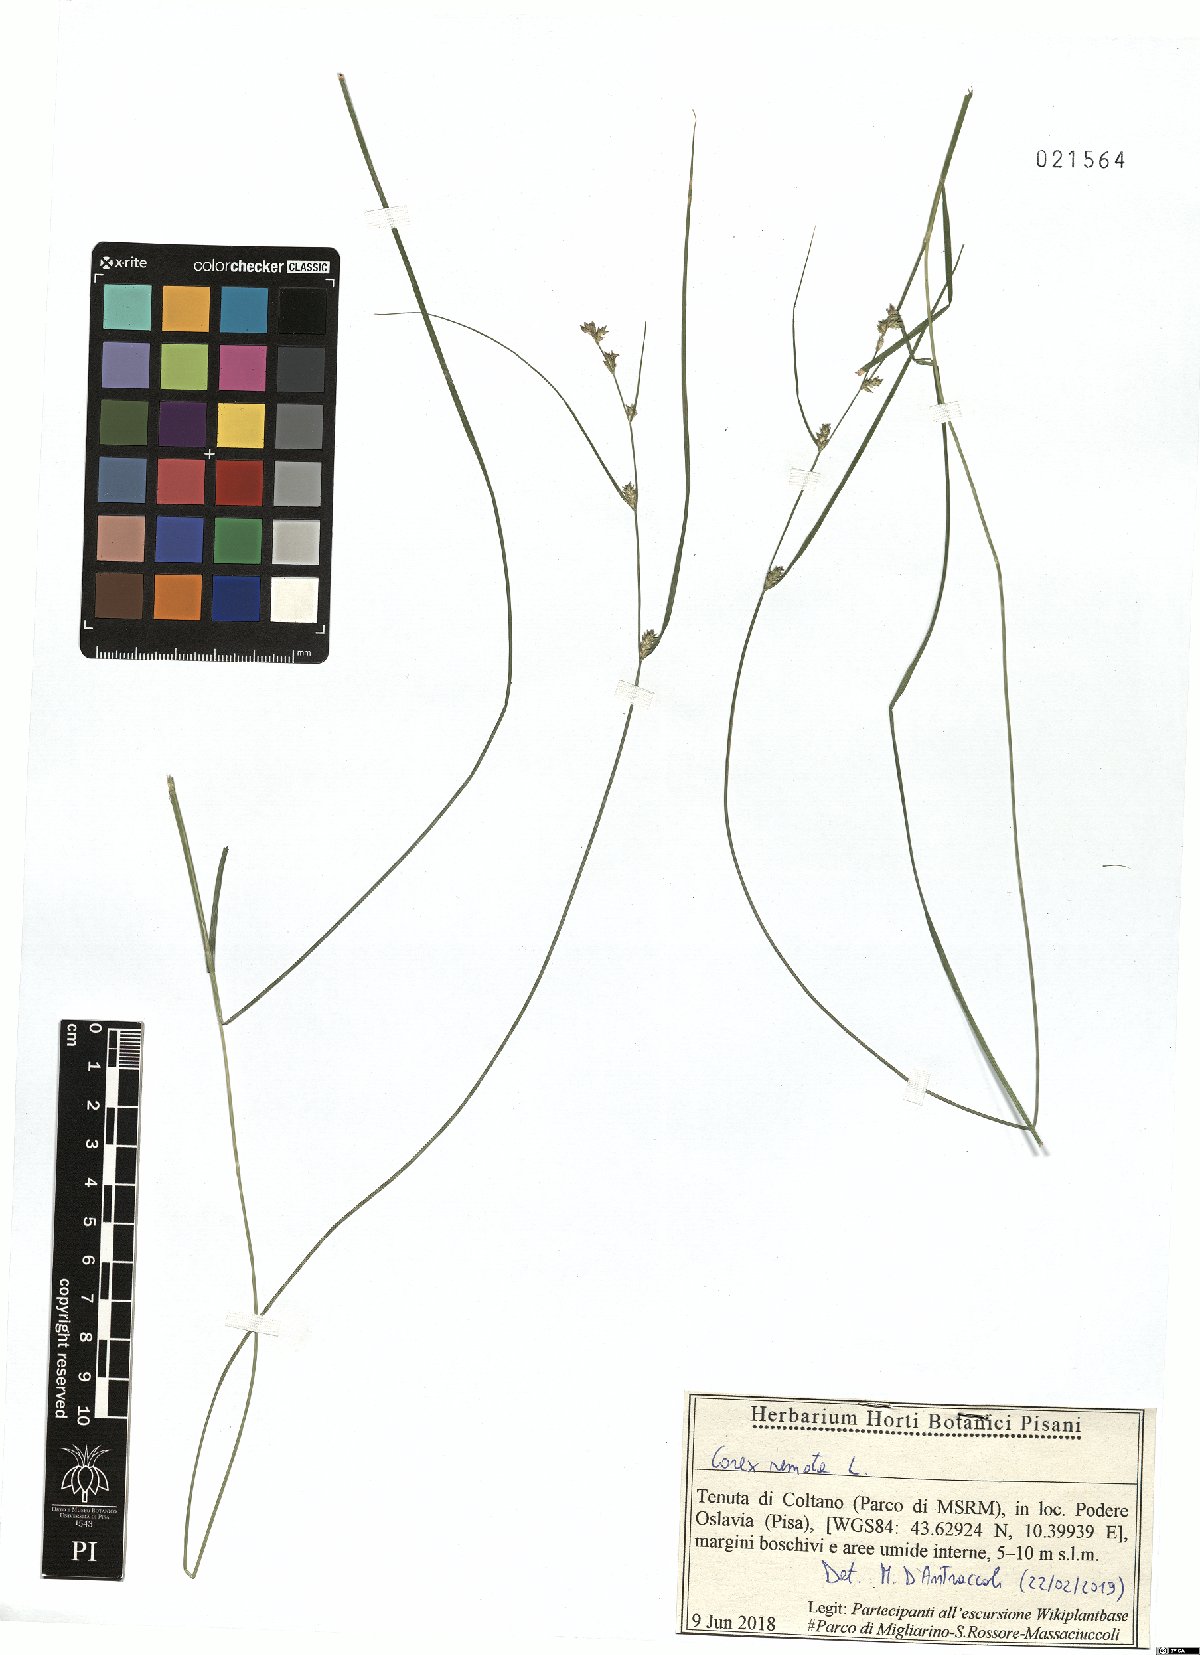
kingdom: Plantae
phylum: Tracheophyta
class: Liliopsida
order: Poales
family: Cyperaceae
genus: Carex
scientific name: Carex remota
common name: Remote sedge
